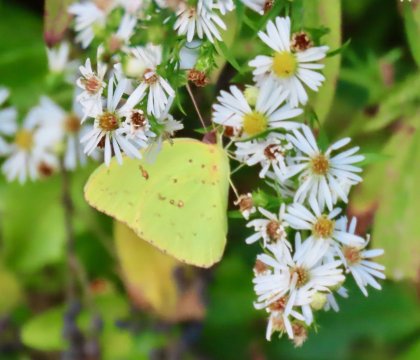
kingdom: Animalia
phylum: Arthropoda
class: Insecta
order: Lepidoptera
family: Pieridae
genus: Phoebis
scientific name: Phoebis sennae
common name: Cloudless Sulphur
